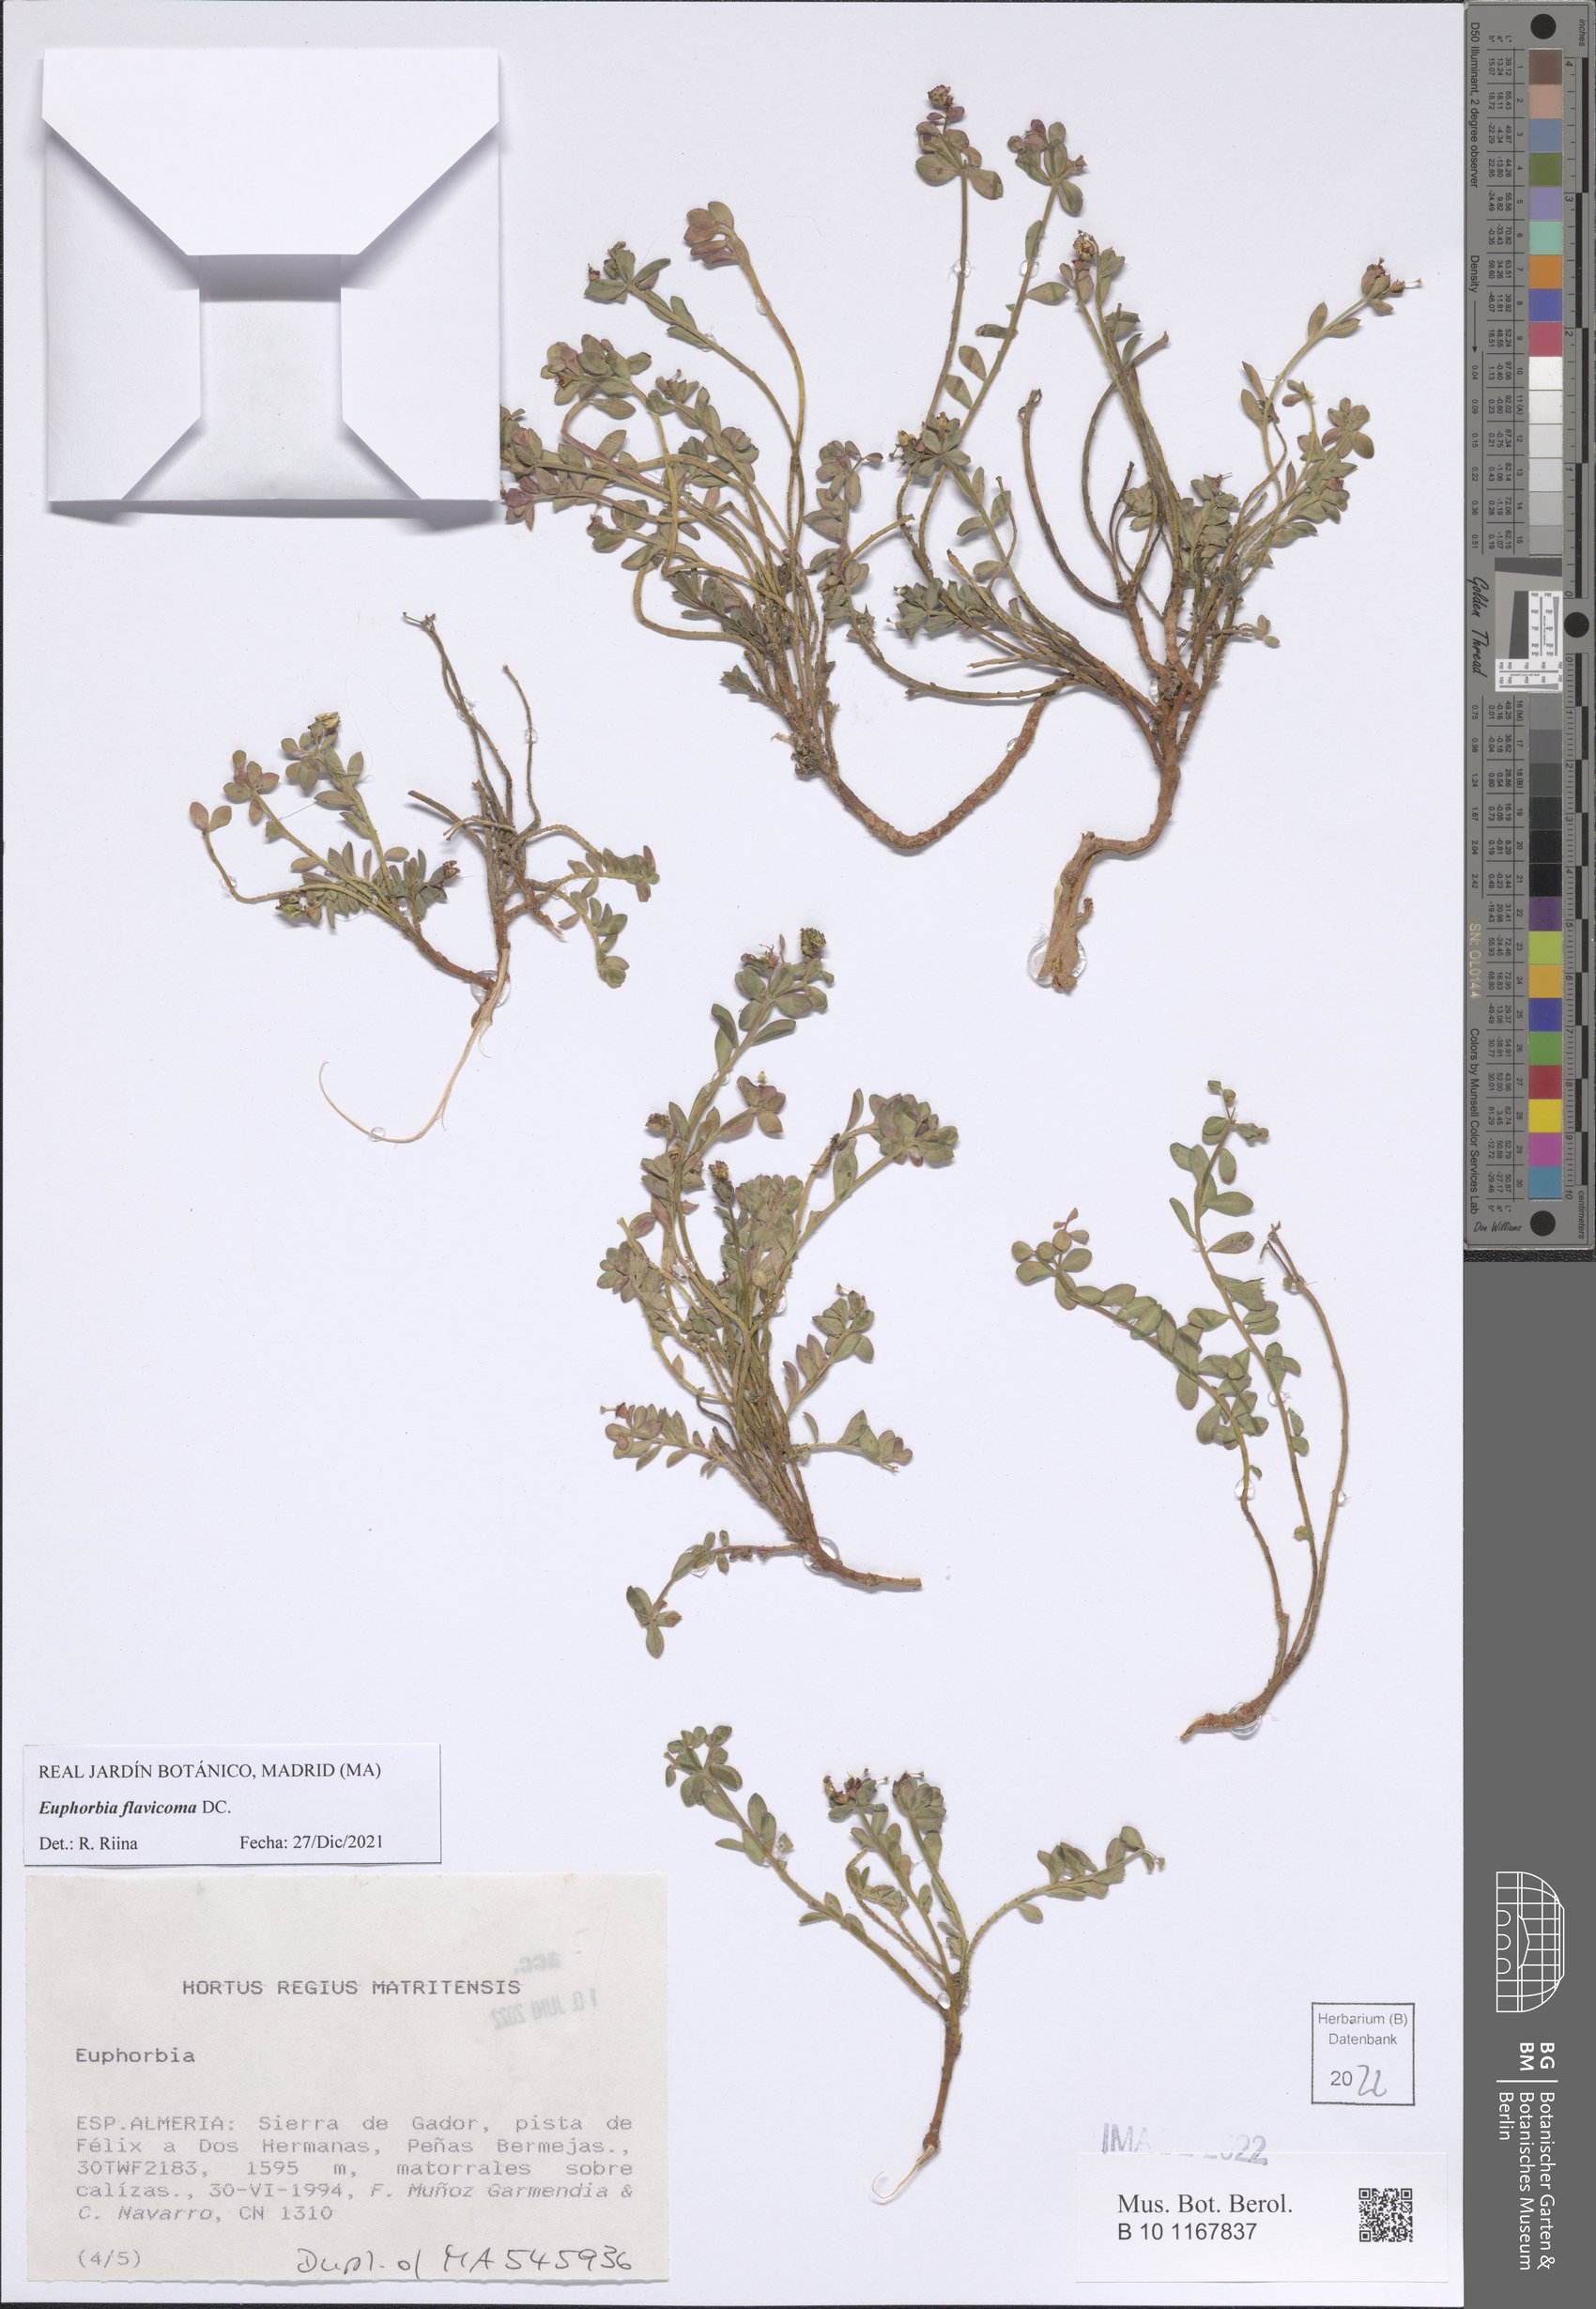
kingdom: Plantae
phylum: Tracheophyta
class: Magnoliopsida
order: Malpighiales
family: Euphorbiaceae
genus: Euphorbia
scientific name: Euphorbia flavicoma
